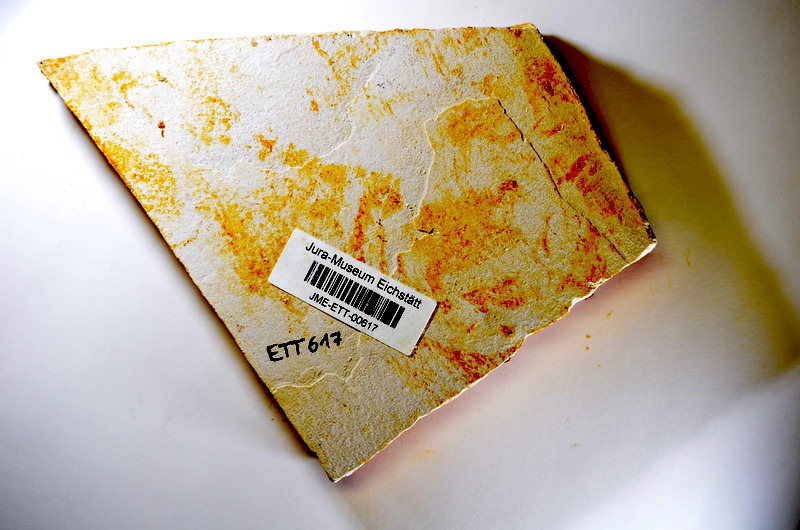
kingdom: Animalia
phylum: Chordata
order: Salmoniformes
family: Orthogonikleithridae
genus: Orthogonikleithrus
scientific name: Orthogonikleithrus hoelli
